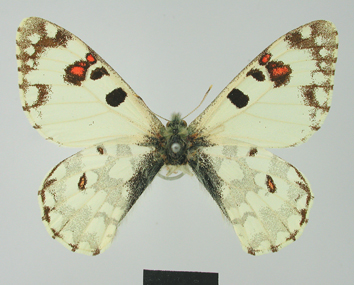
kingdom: Animalia
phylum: Arthropoda
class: Insecta
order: Lepidoptera
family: Papilionidae
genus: Hypermnestra
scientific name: Hypermnestra helios
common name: Desert apollo
